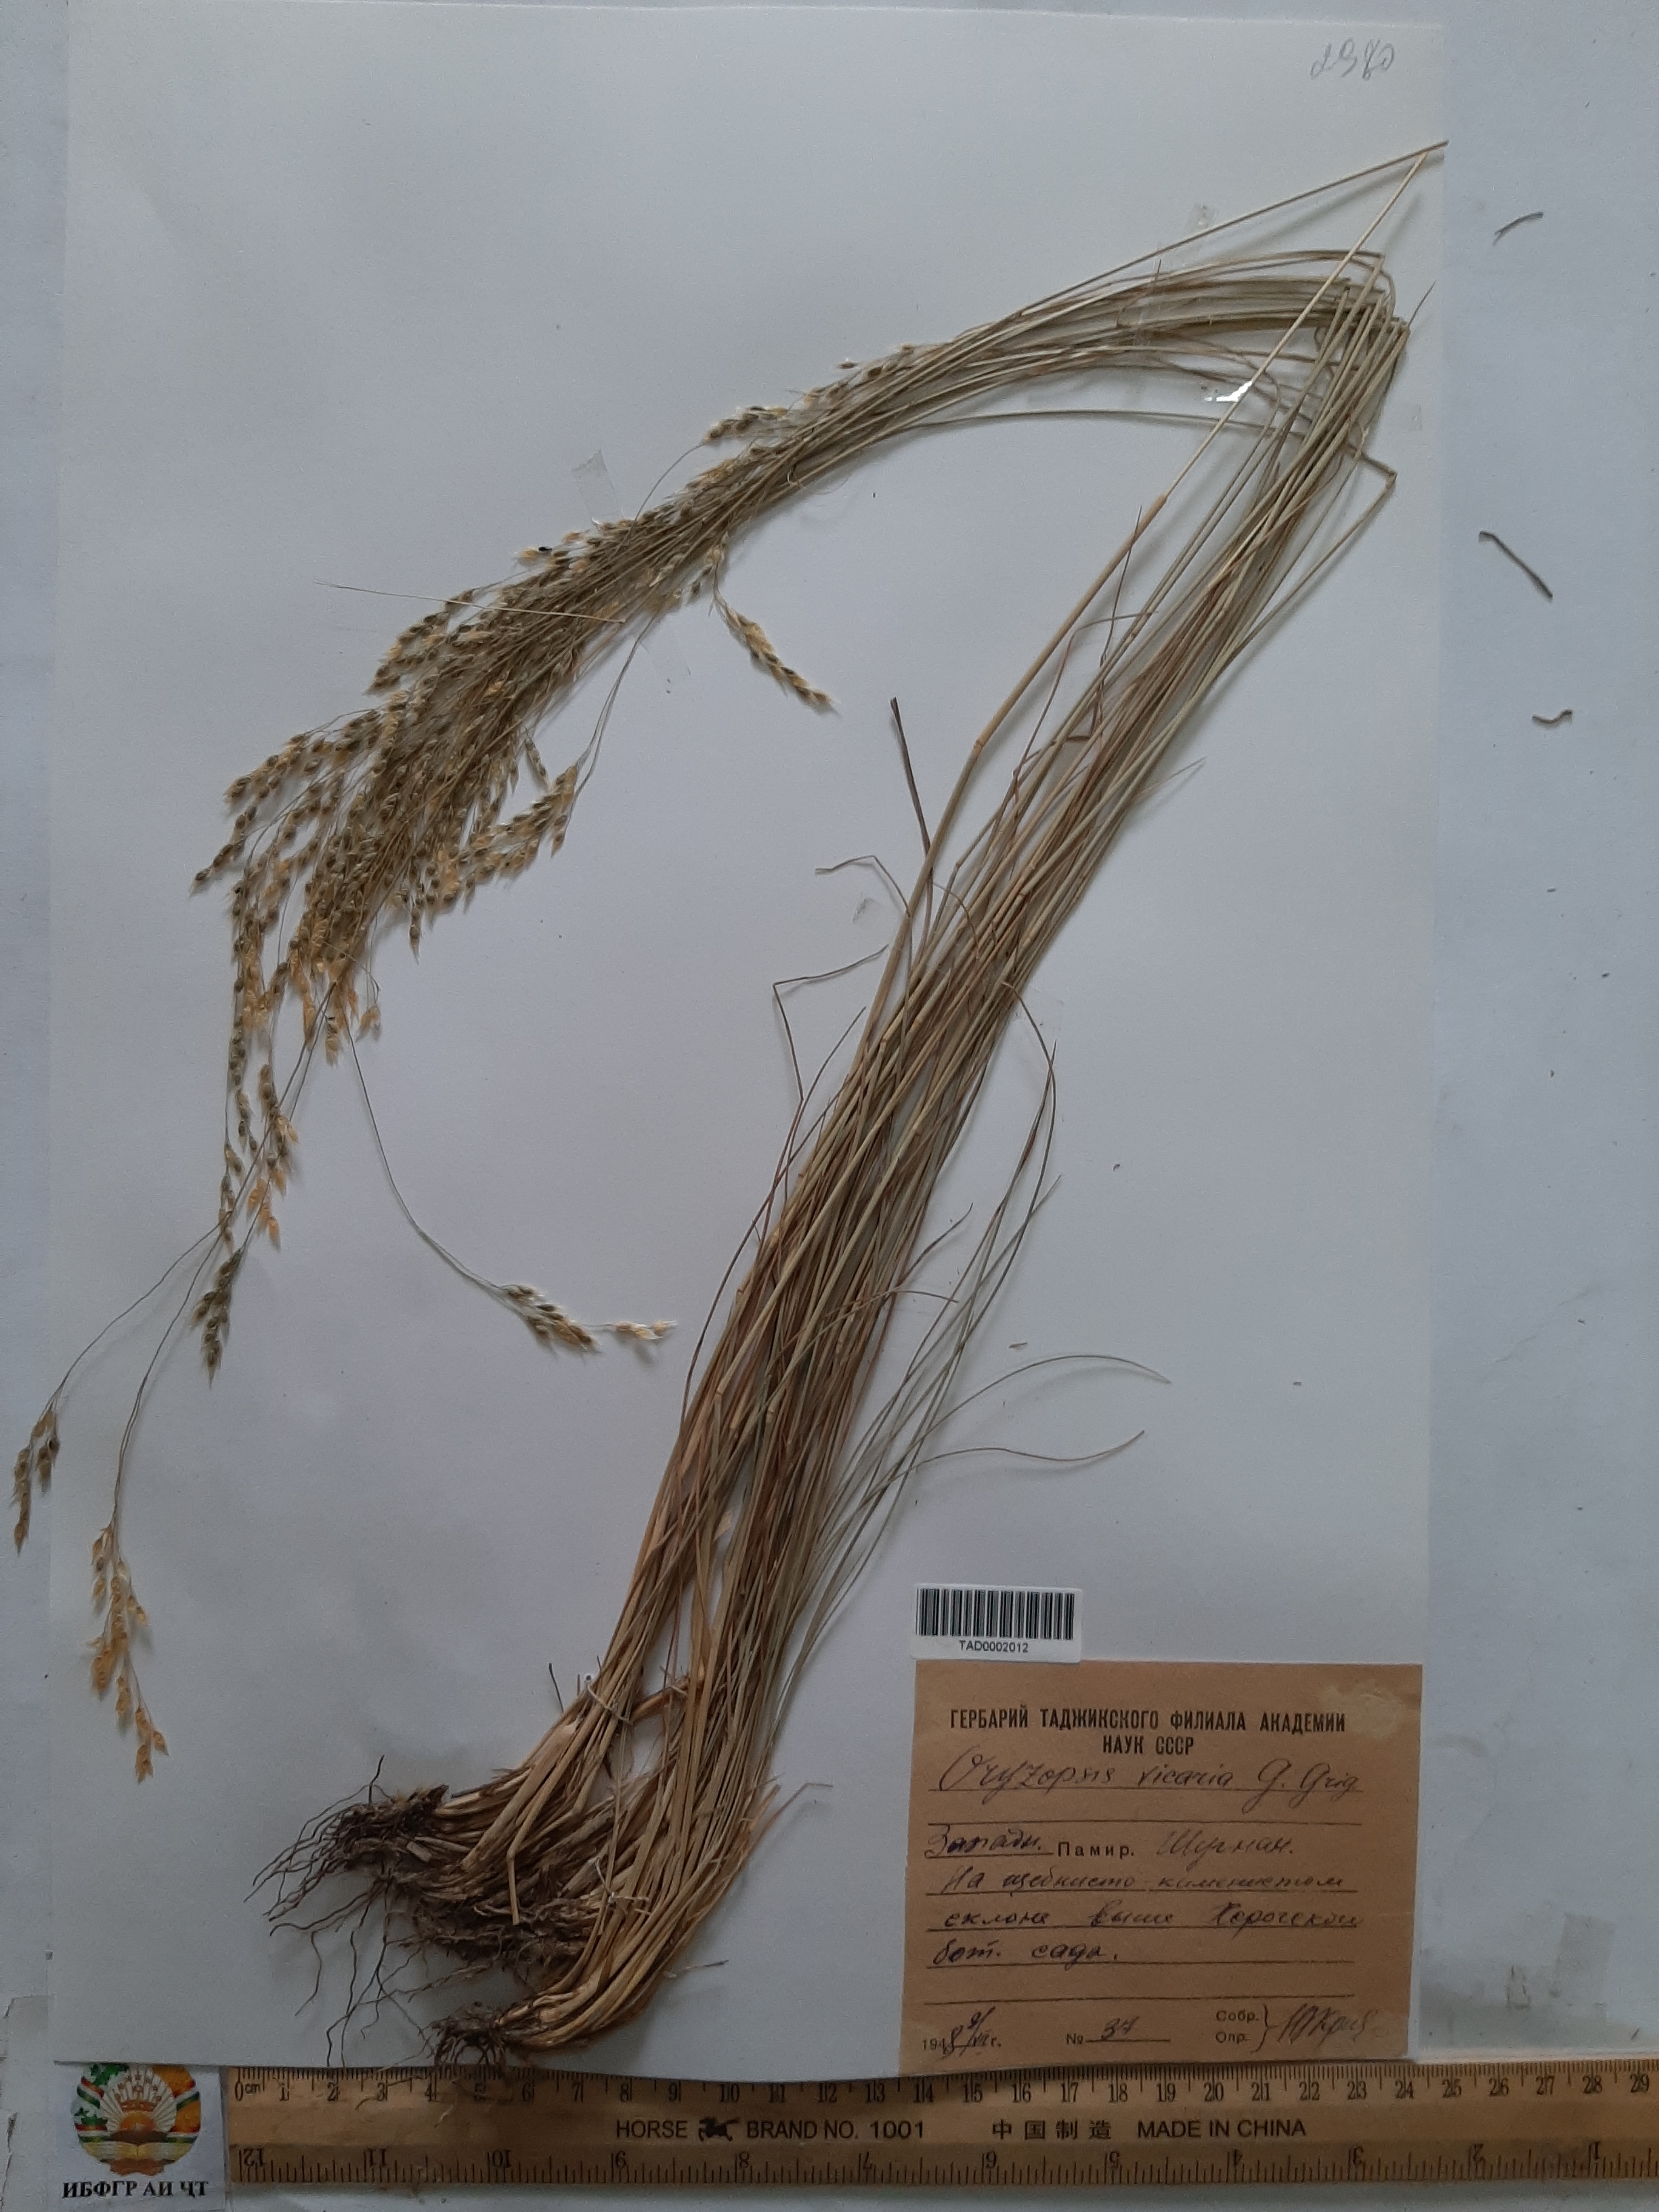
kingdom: Plantae
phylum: Tracheophyta
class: Liliopsida
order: Poales
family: Poaceae
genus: Piptatherum
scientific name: Piptatherum microcarpum
